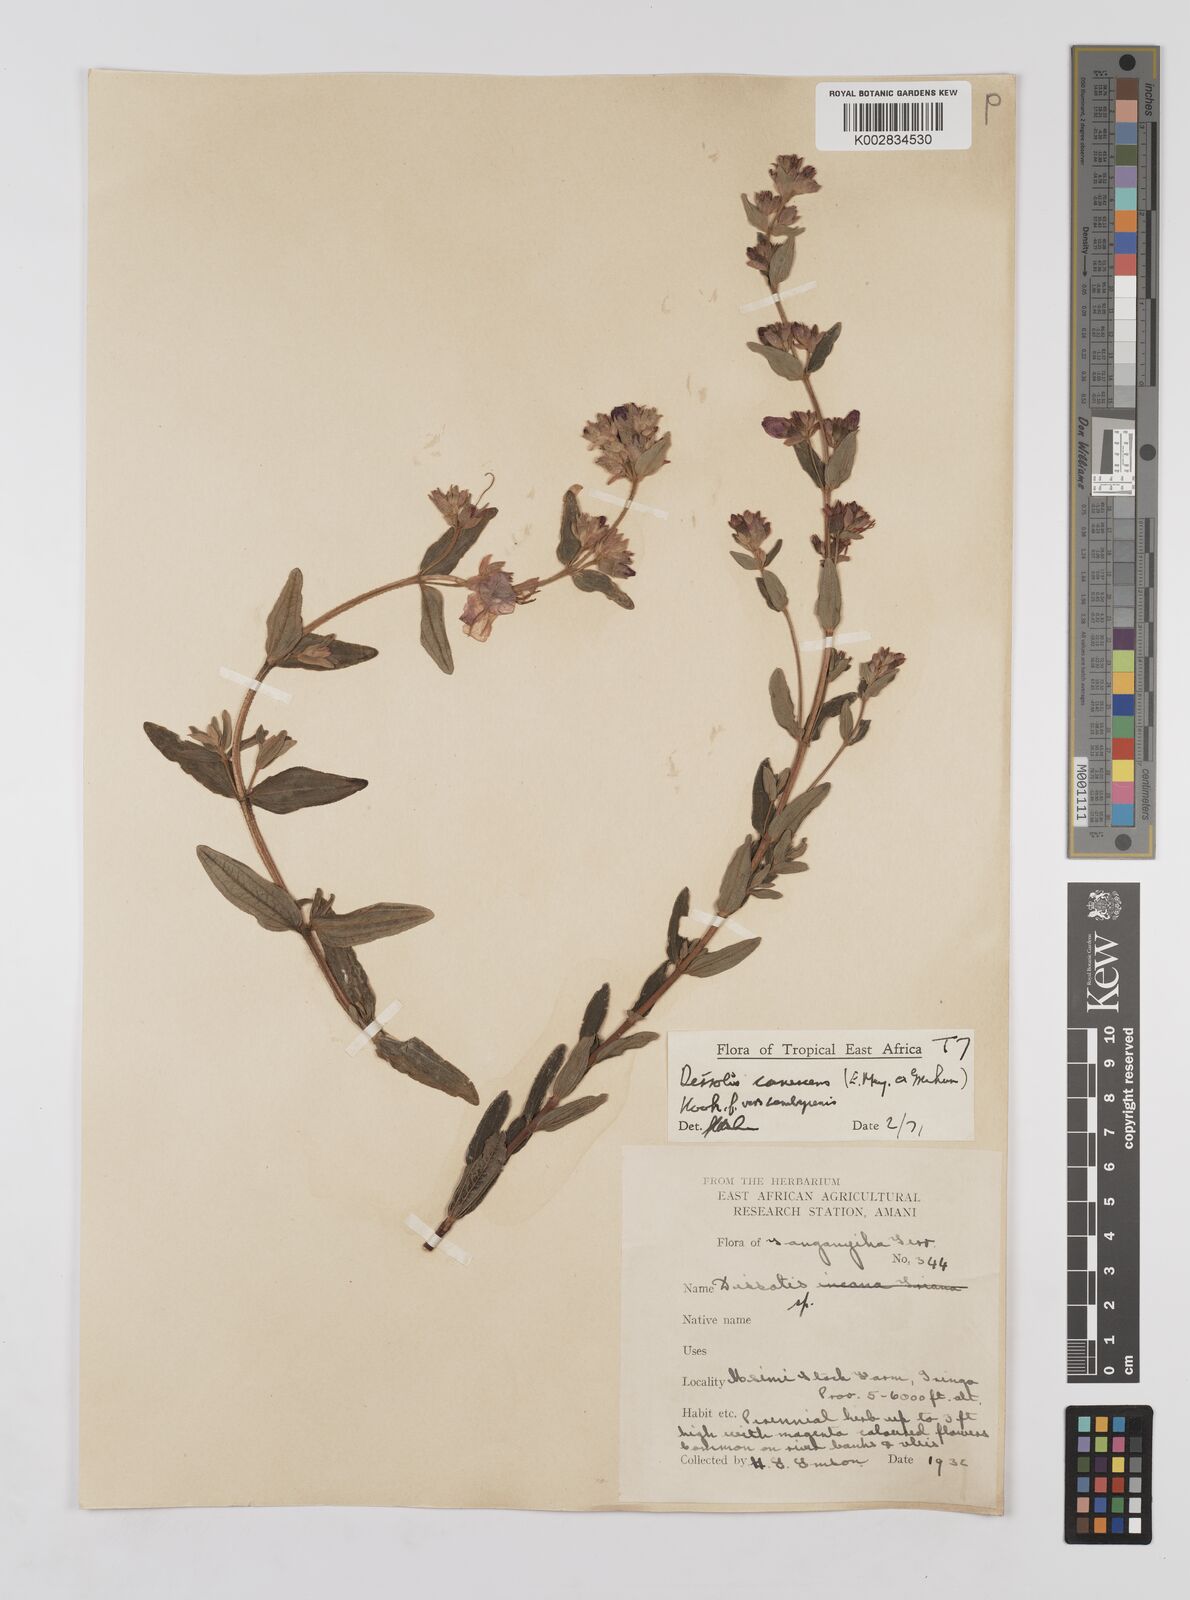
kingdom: Plantae
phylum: Tracheophyta
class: Magnoliopsida
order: Myrtales
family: Melastomataceae
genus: Argyrella
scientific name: Argyrella canescens
